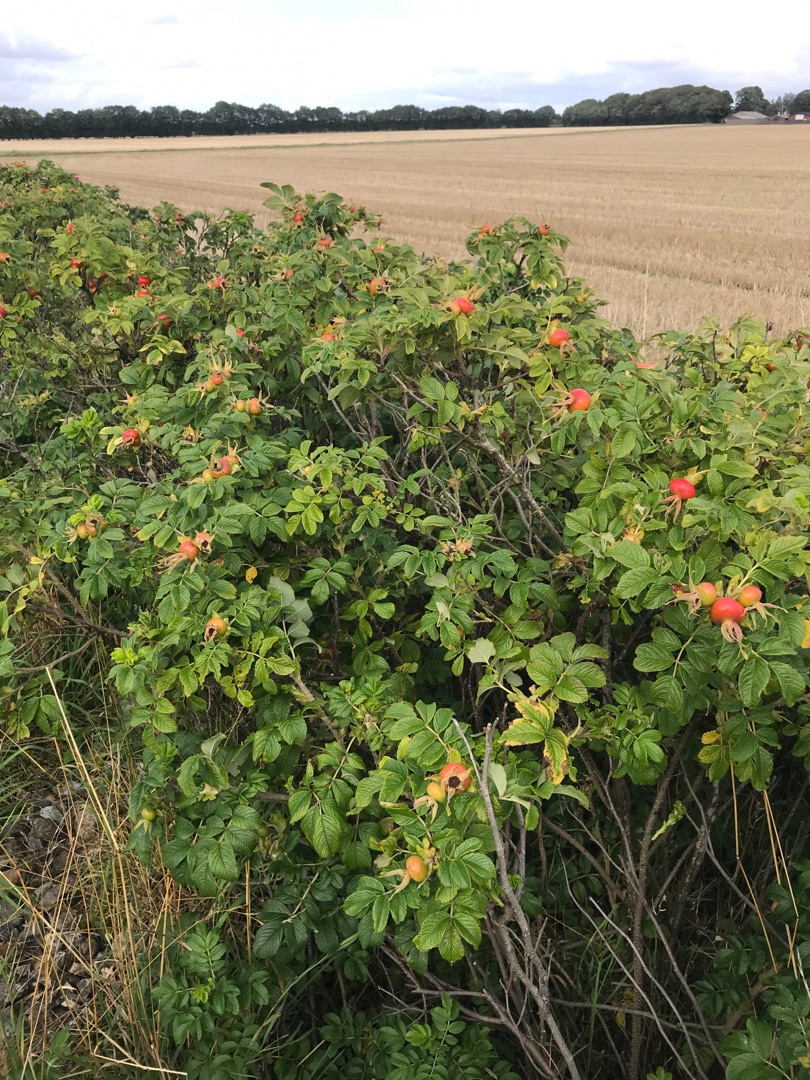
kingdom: Plantae
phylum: Tracheophyta
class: Magnoliopsida
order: Rosales
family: Rosaceae
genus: Rosa
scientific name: Rosa rugosa
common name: Rynket rose
